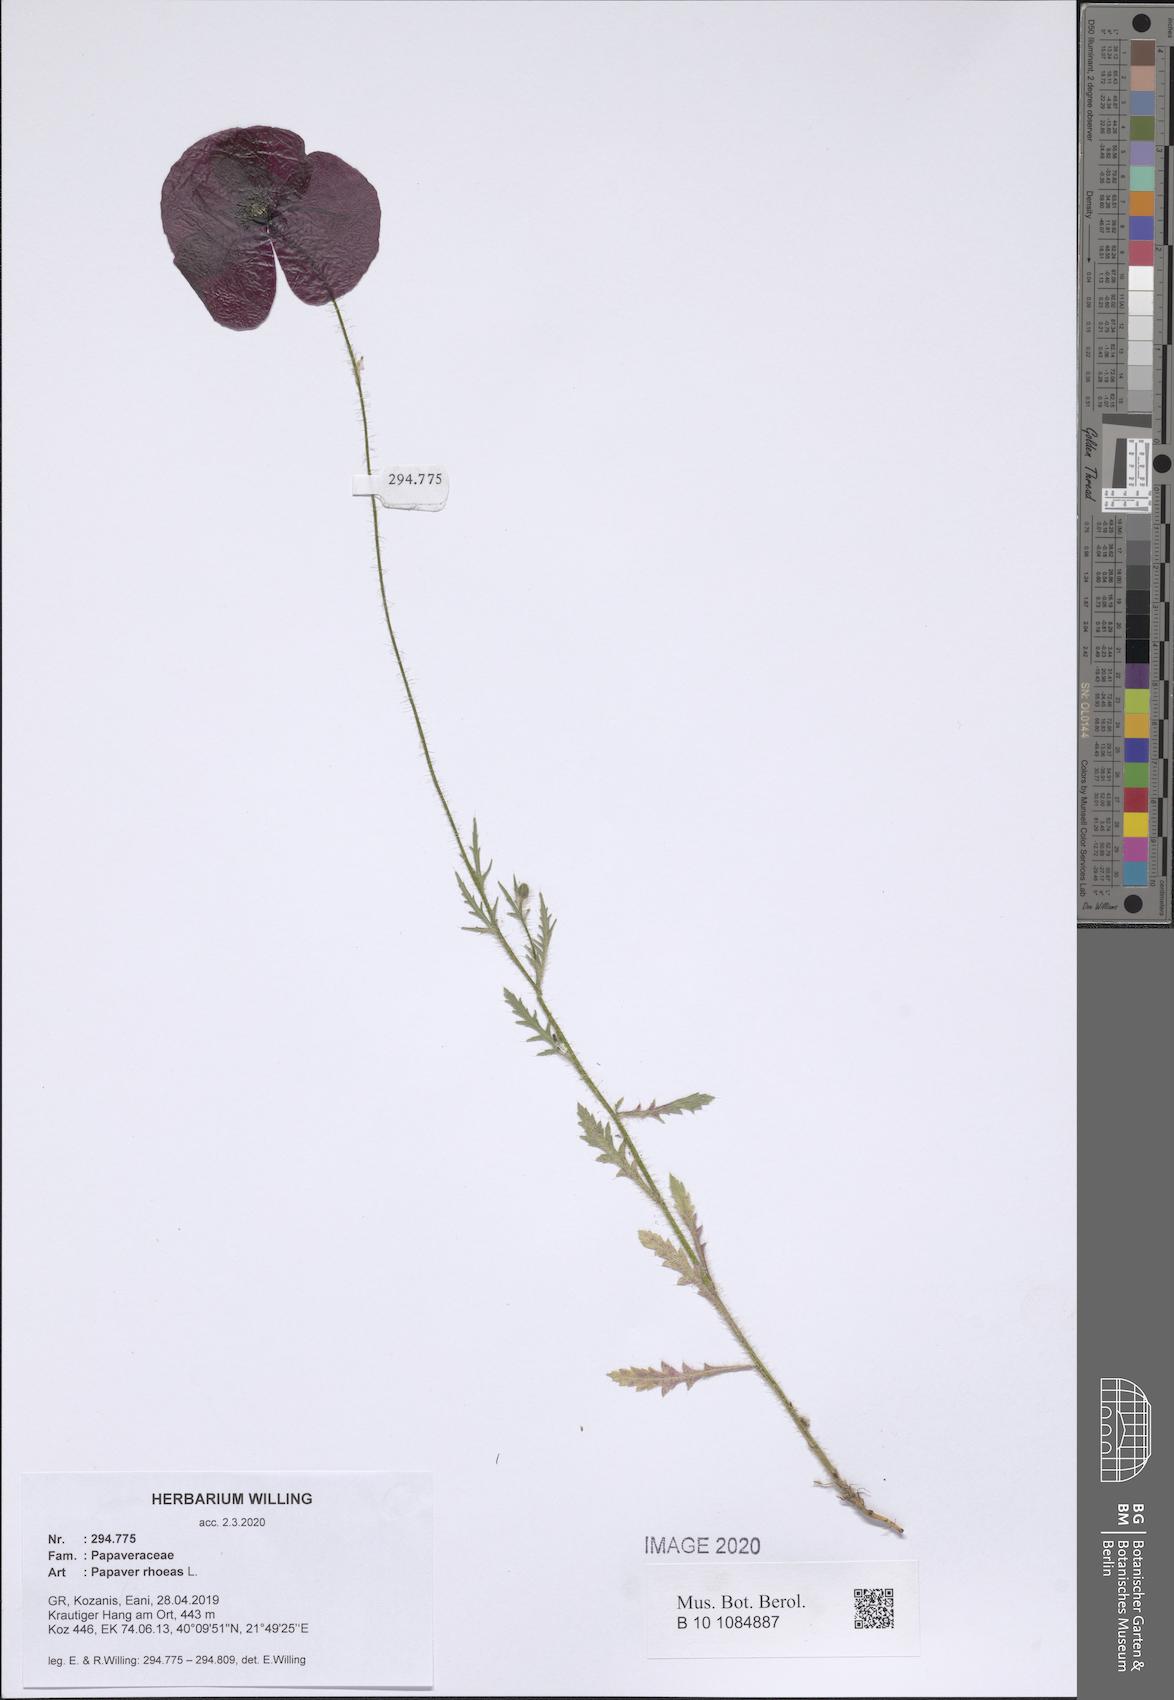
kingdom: Plantae
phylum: Tracheophyta
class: Magnoliopsida
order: Ranunculales
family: Papaveraceae
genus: Papaver
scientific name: Papaver rhoeas
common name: Corn poppy
